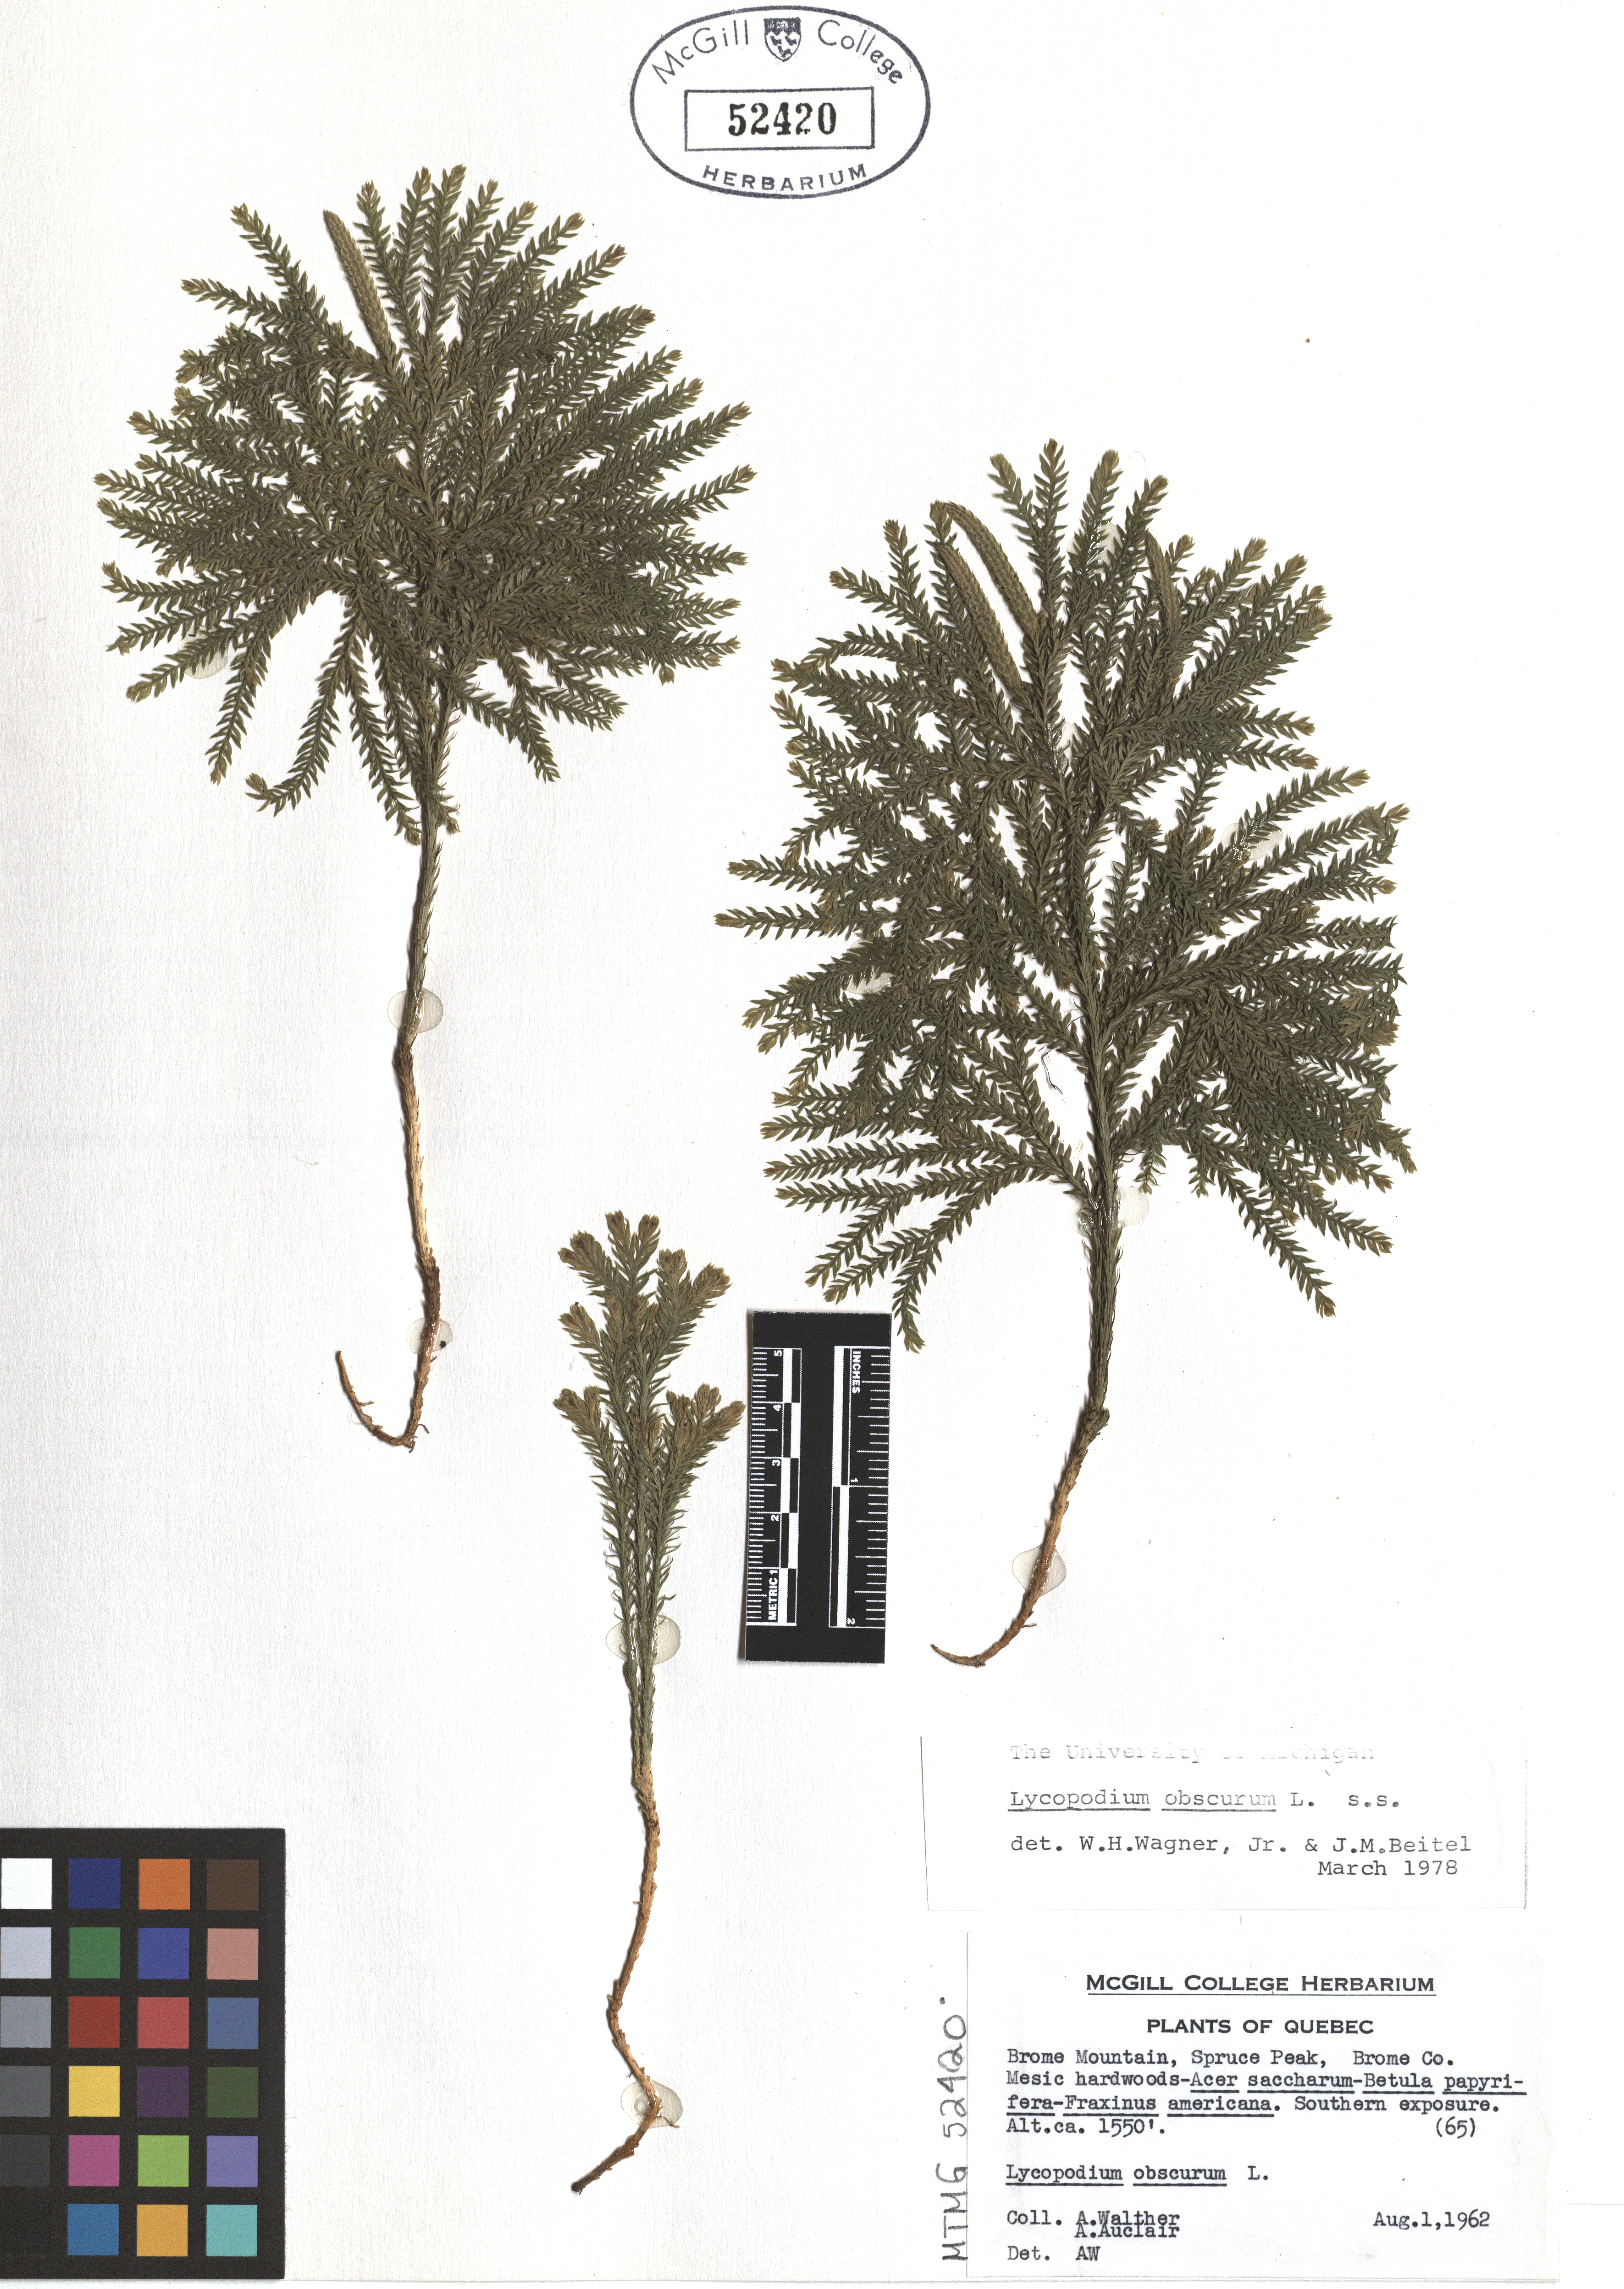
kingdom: Plantae
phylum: Tracheophyta
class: Lycopodiopsida
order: Lycopodiales
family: Lycopodiaceae
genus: Dendrolycopodium
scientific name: Dendrolycopodium obscurum
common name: Common ground-pine
